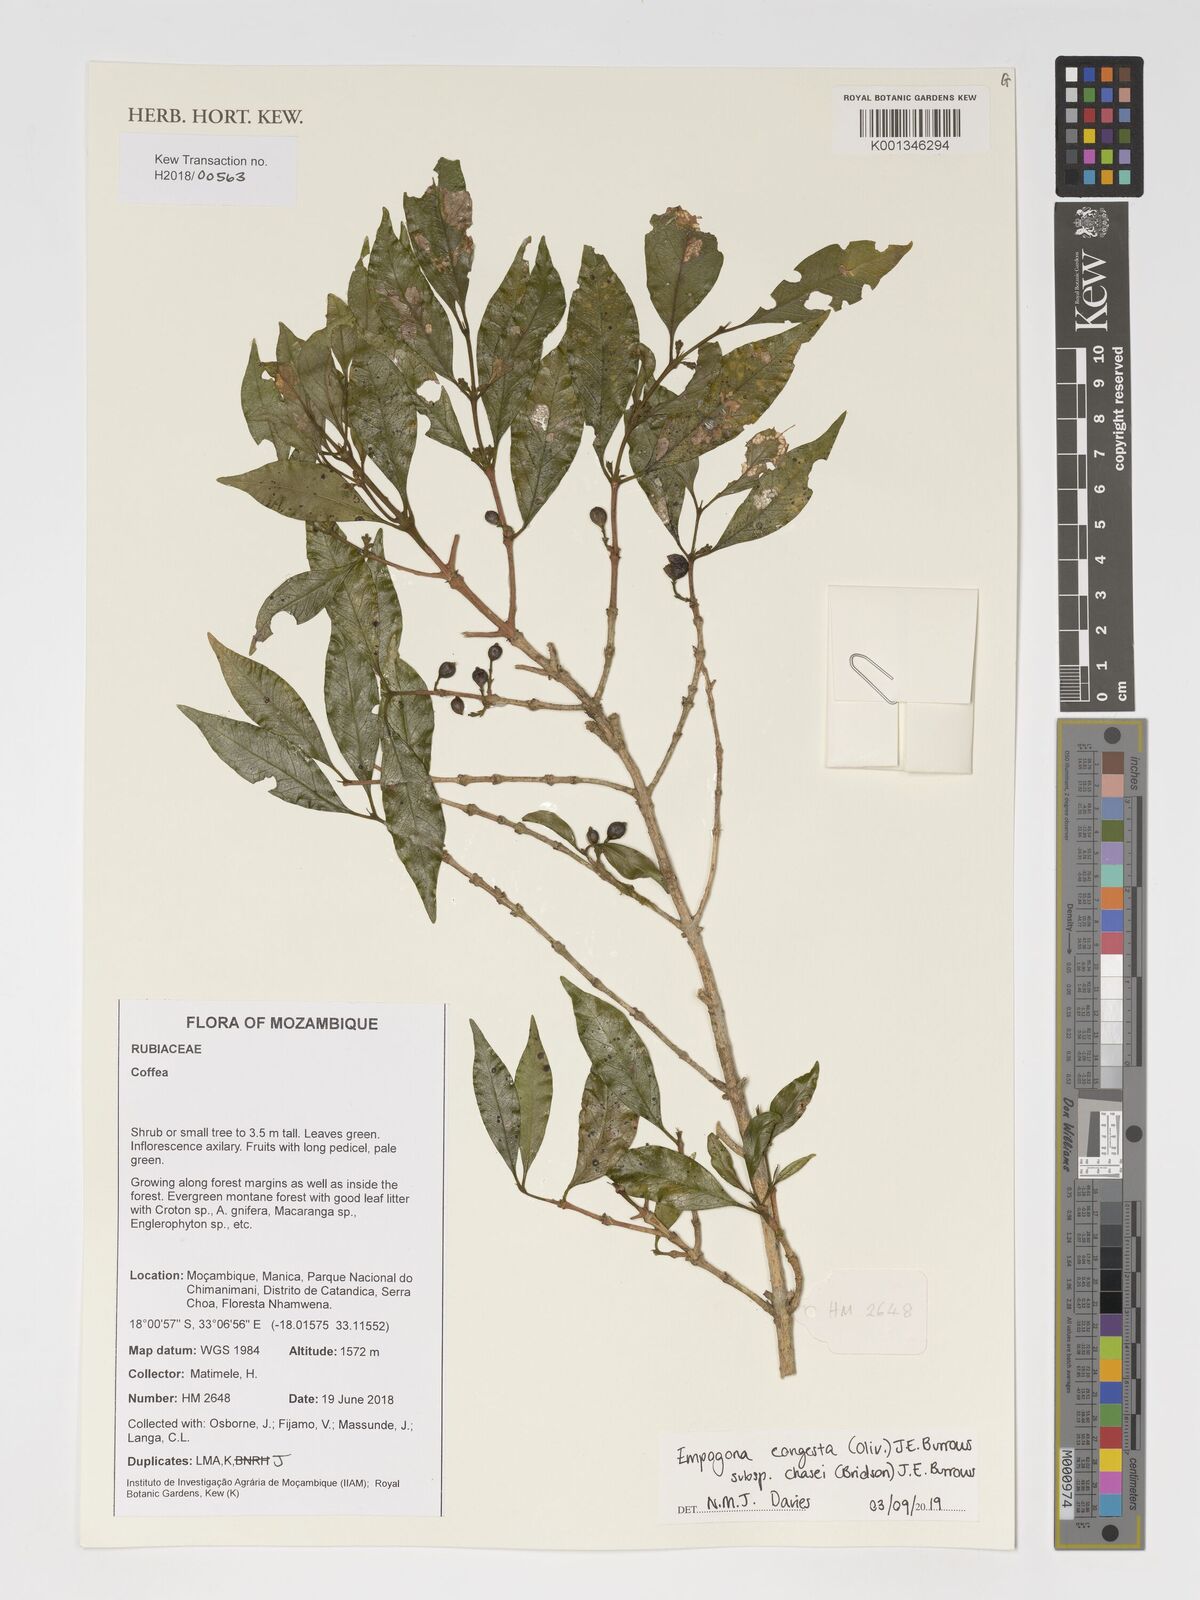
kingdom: Plantae
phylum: Tracheophyta
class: Magnoliopsida
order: Gentianales
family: Rubiaceae
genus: Empogona
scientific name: Empogona congesta
